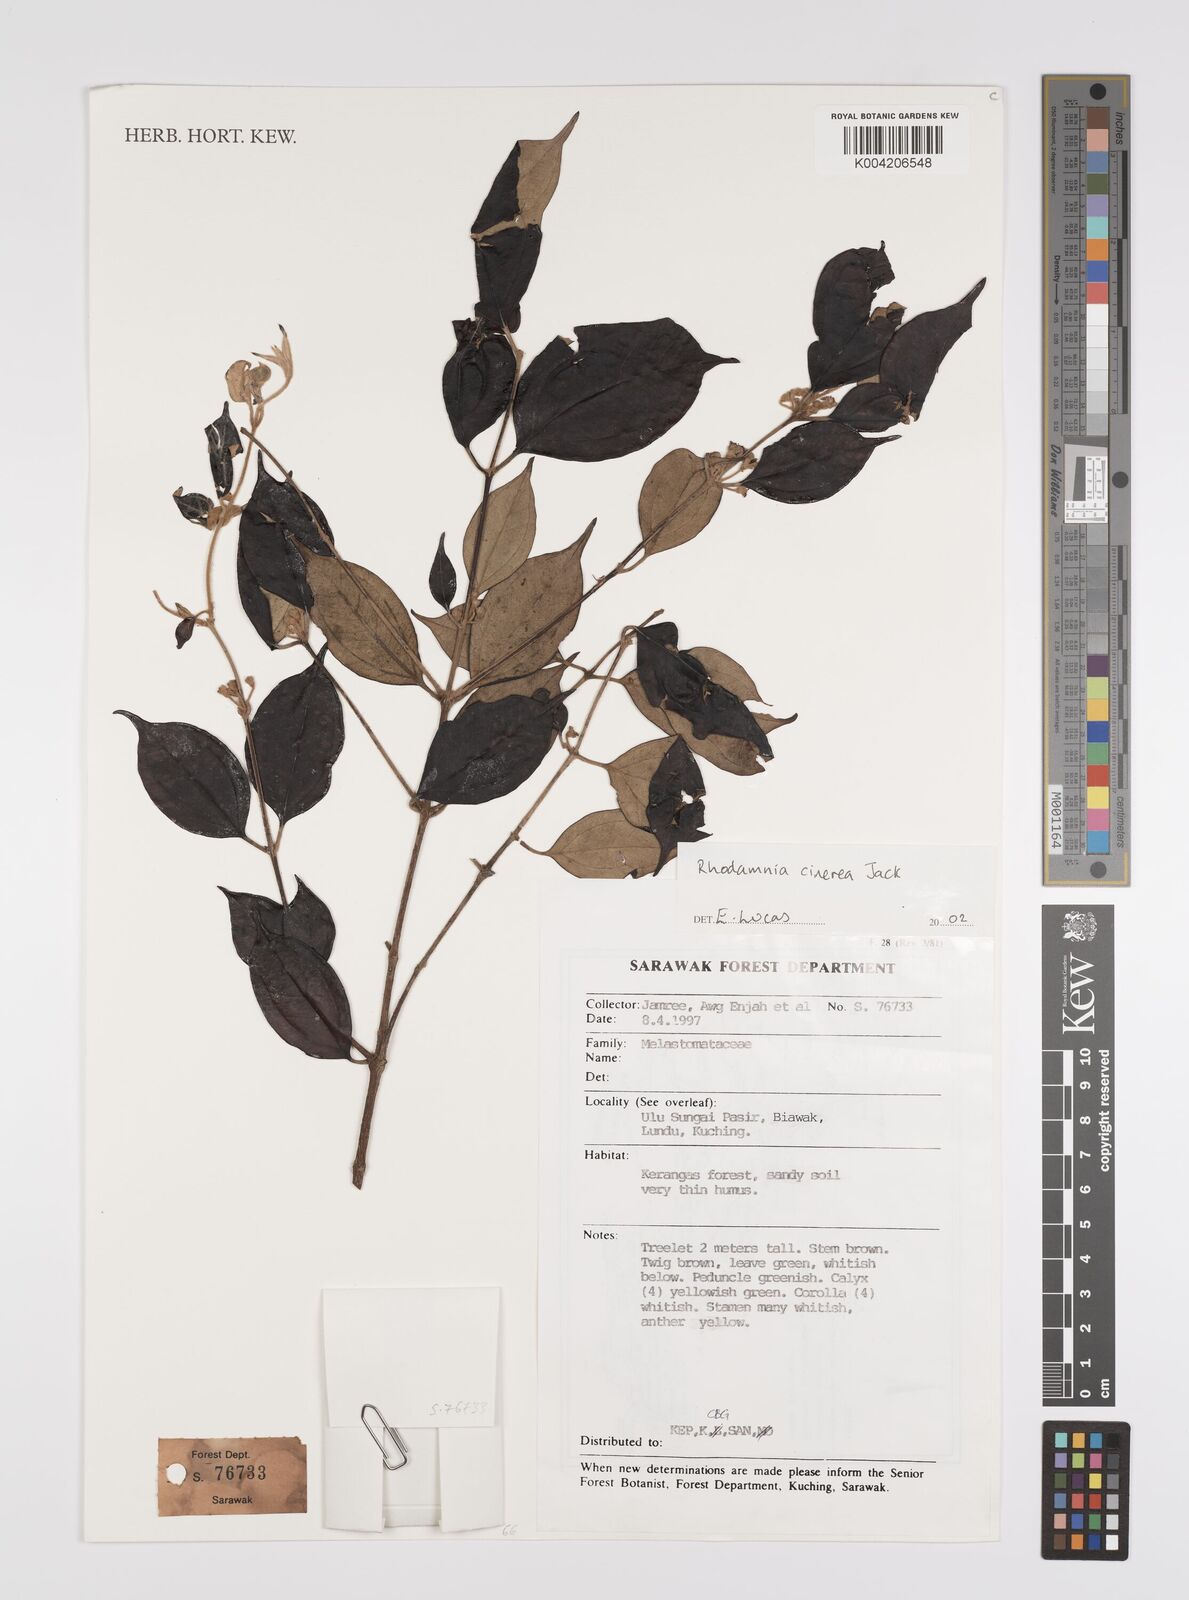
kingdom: Plantae
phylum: Tracheophyta
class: Magnoliopsida
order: Myrtales
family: Myrtaceae
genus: Rhodamnia
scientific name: Rhodamnia cinerea
